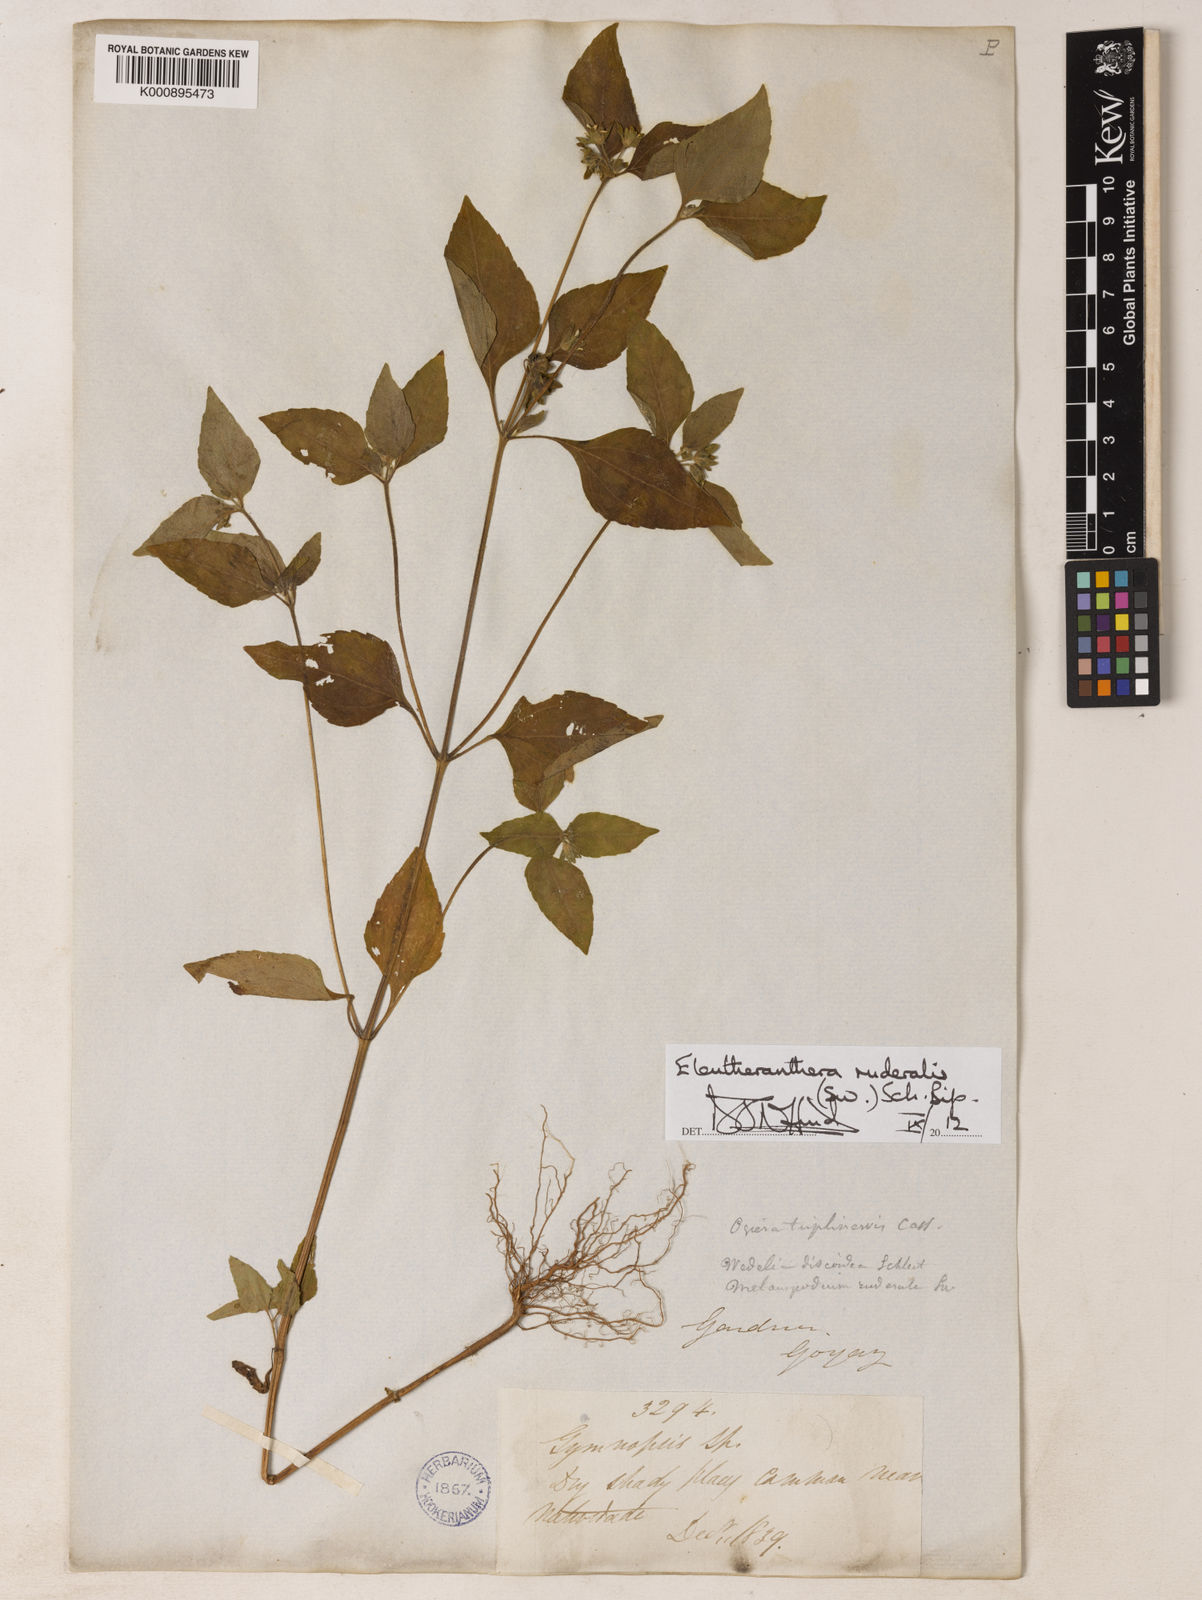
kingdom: Plantae
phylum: Tracheophyta
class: Magnoliopsida
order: Asterales
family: Asteraceae
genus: Eleutheranthera
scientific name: Eleutheranthera ruderalis
